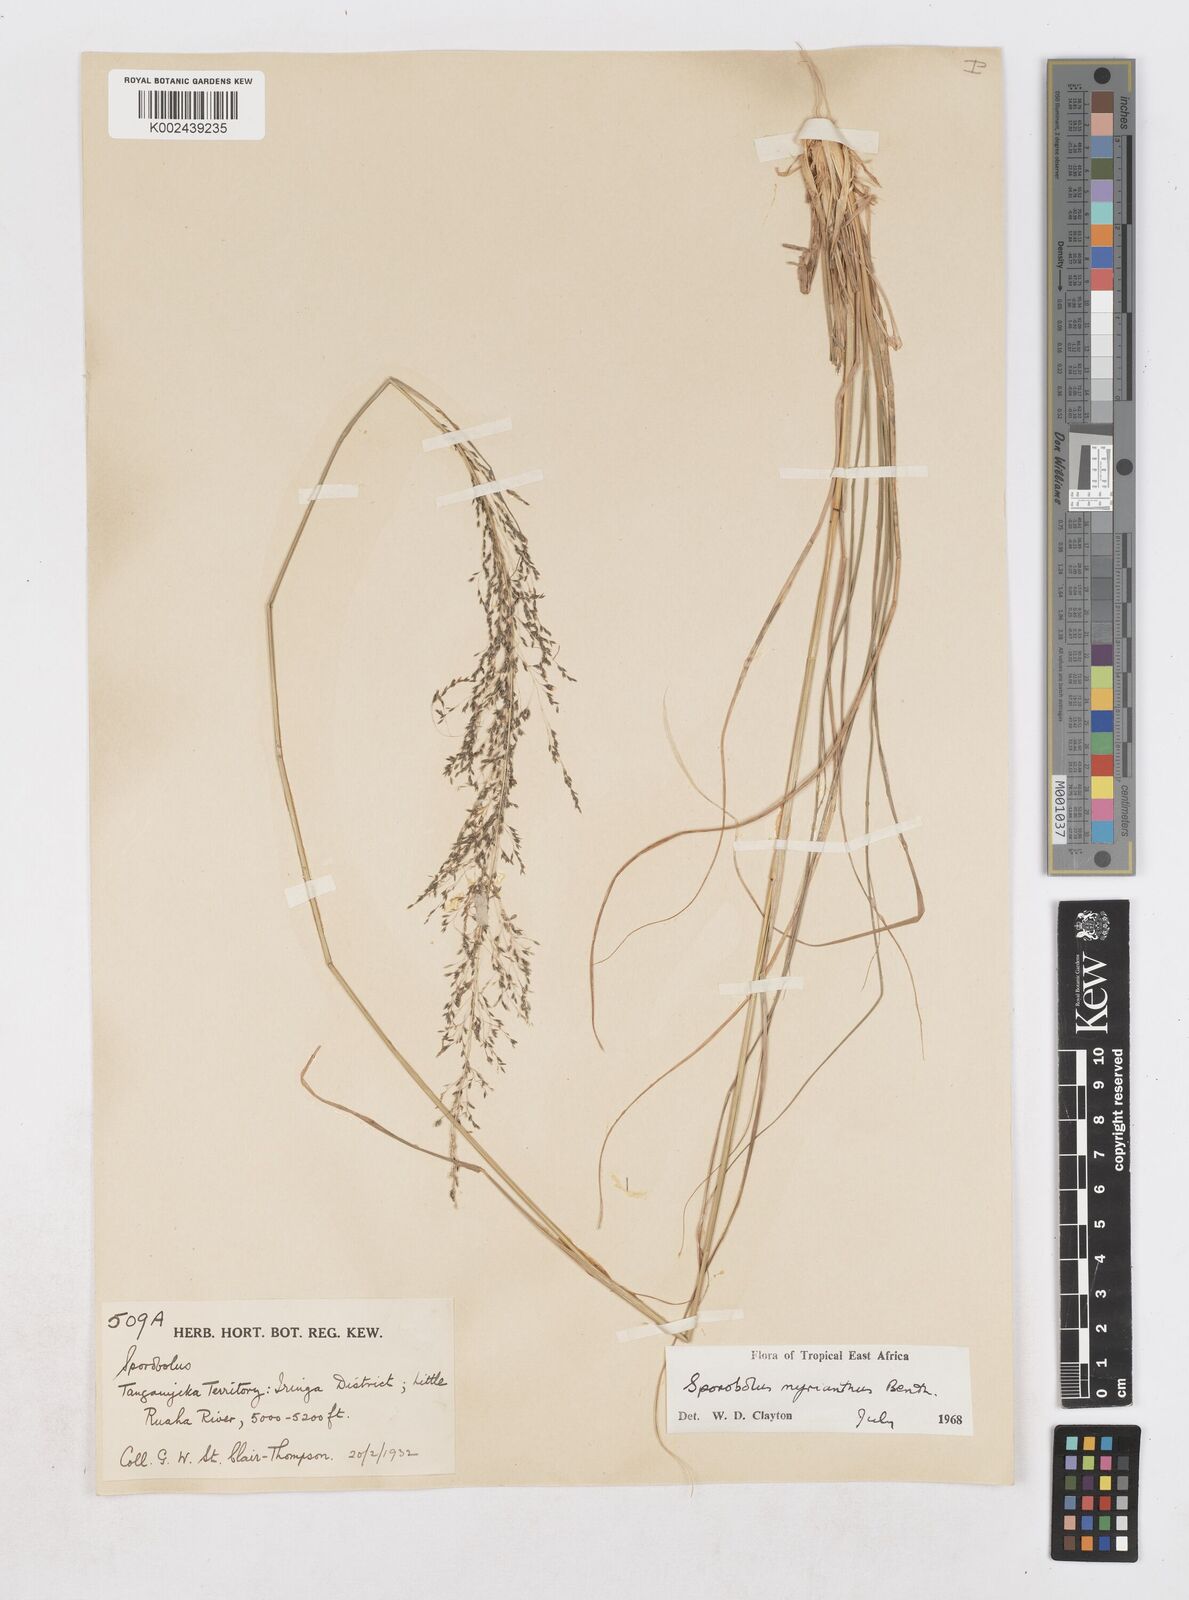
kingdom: Plantae
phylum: Tracheophyta
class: Liliopsida
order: Poales
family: Poaceae
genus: Sporobolus
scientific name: Sporobolus myrianthus
